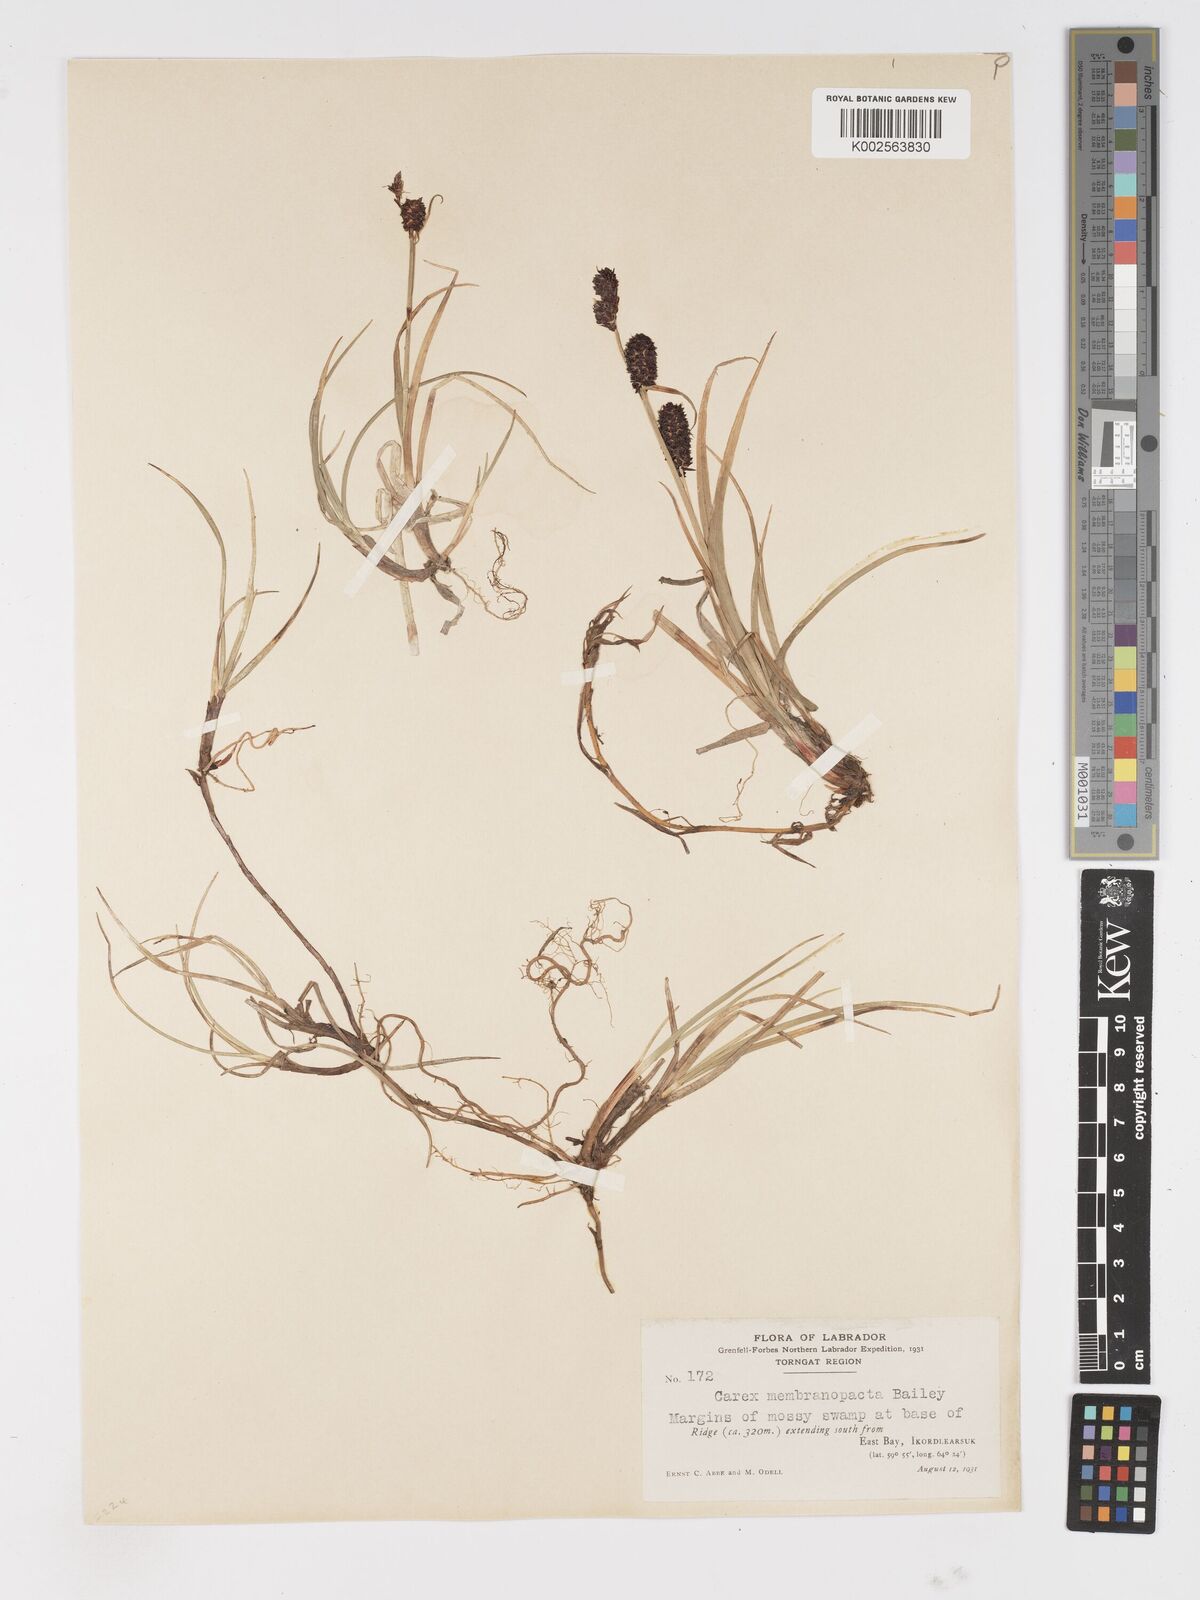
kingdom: Plantae
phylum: Tracheophyta
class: Liliopsida
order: Poales
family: Cyperaceae
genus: Carex
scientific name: Carex membranacea
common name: Fragile sedge
